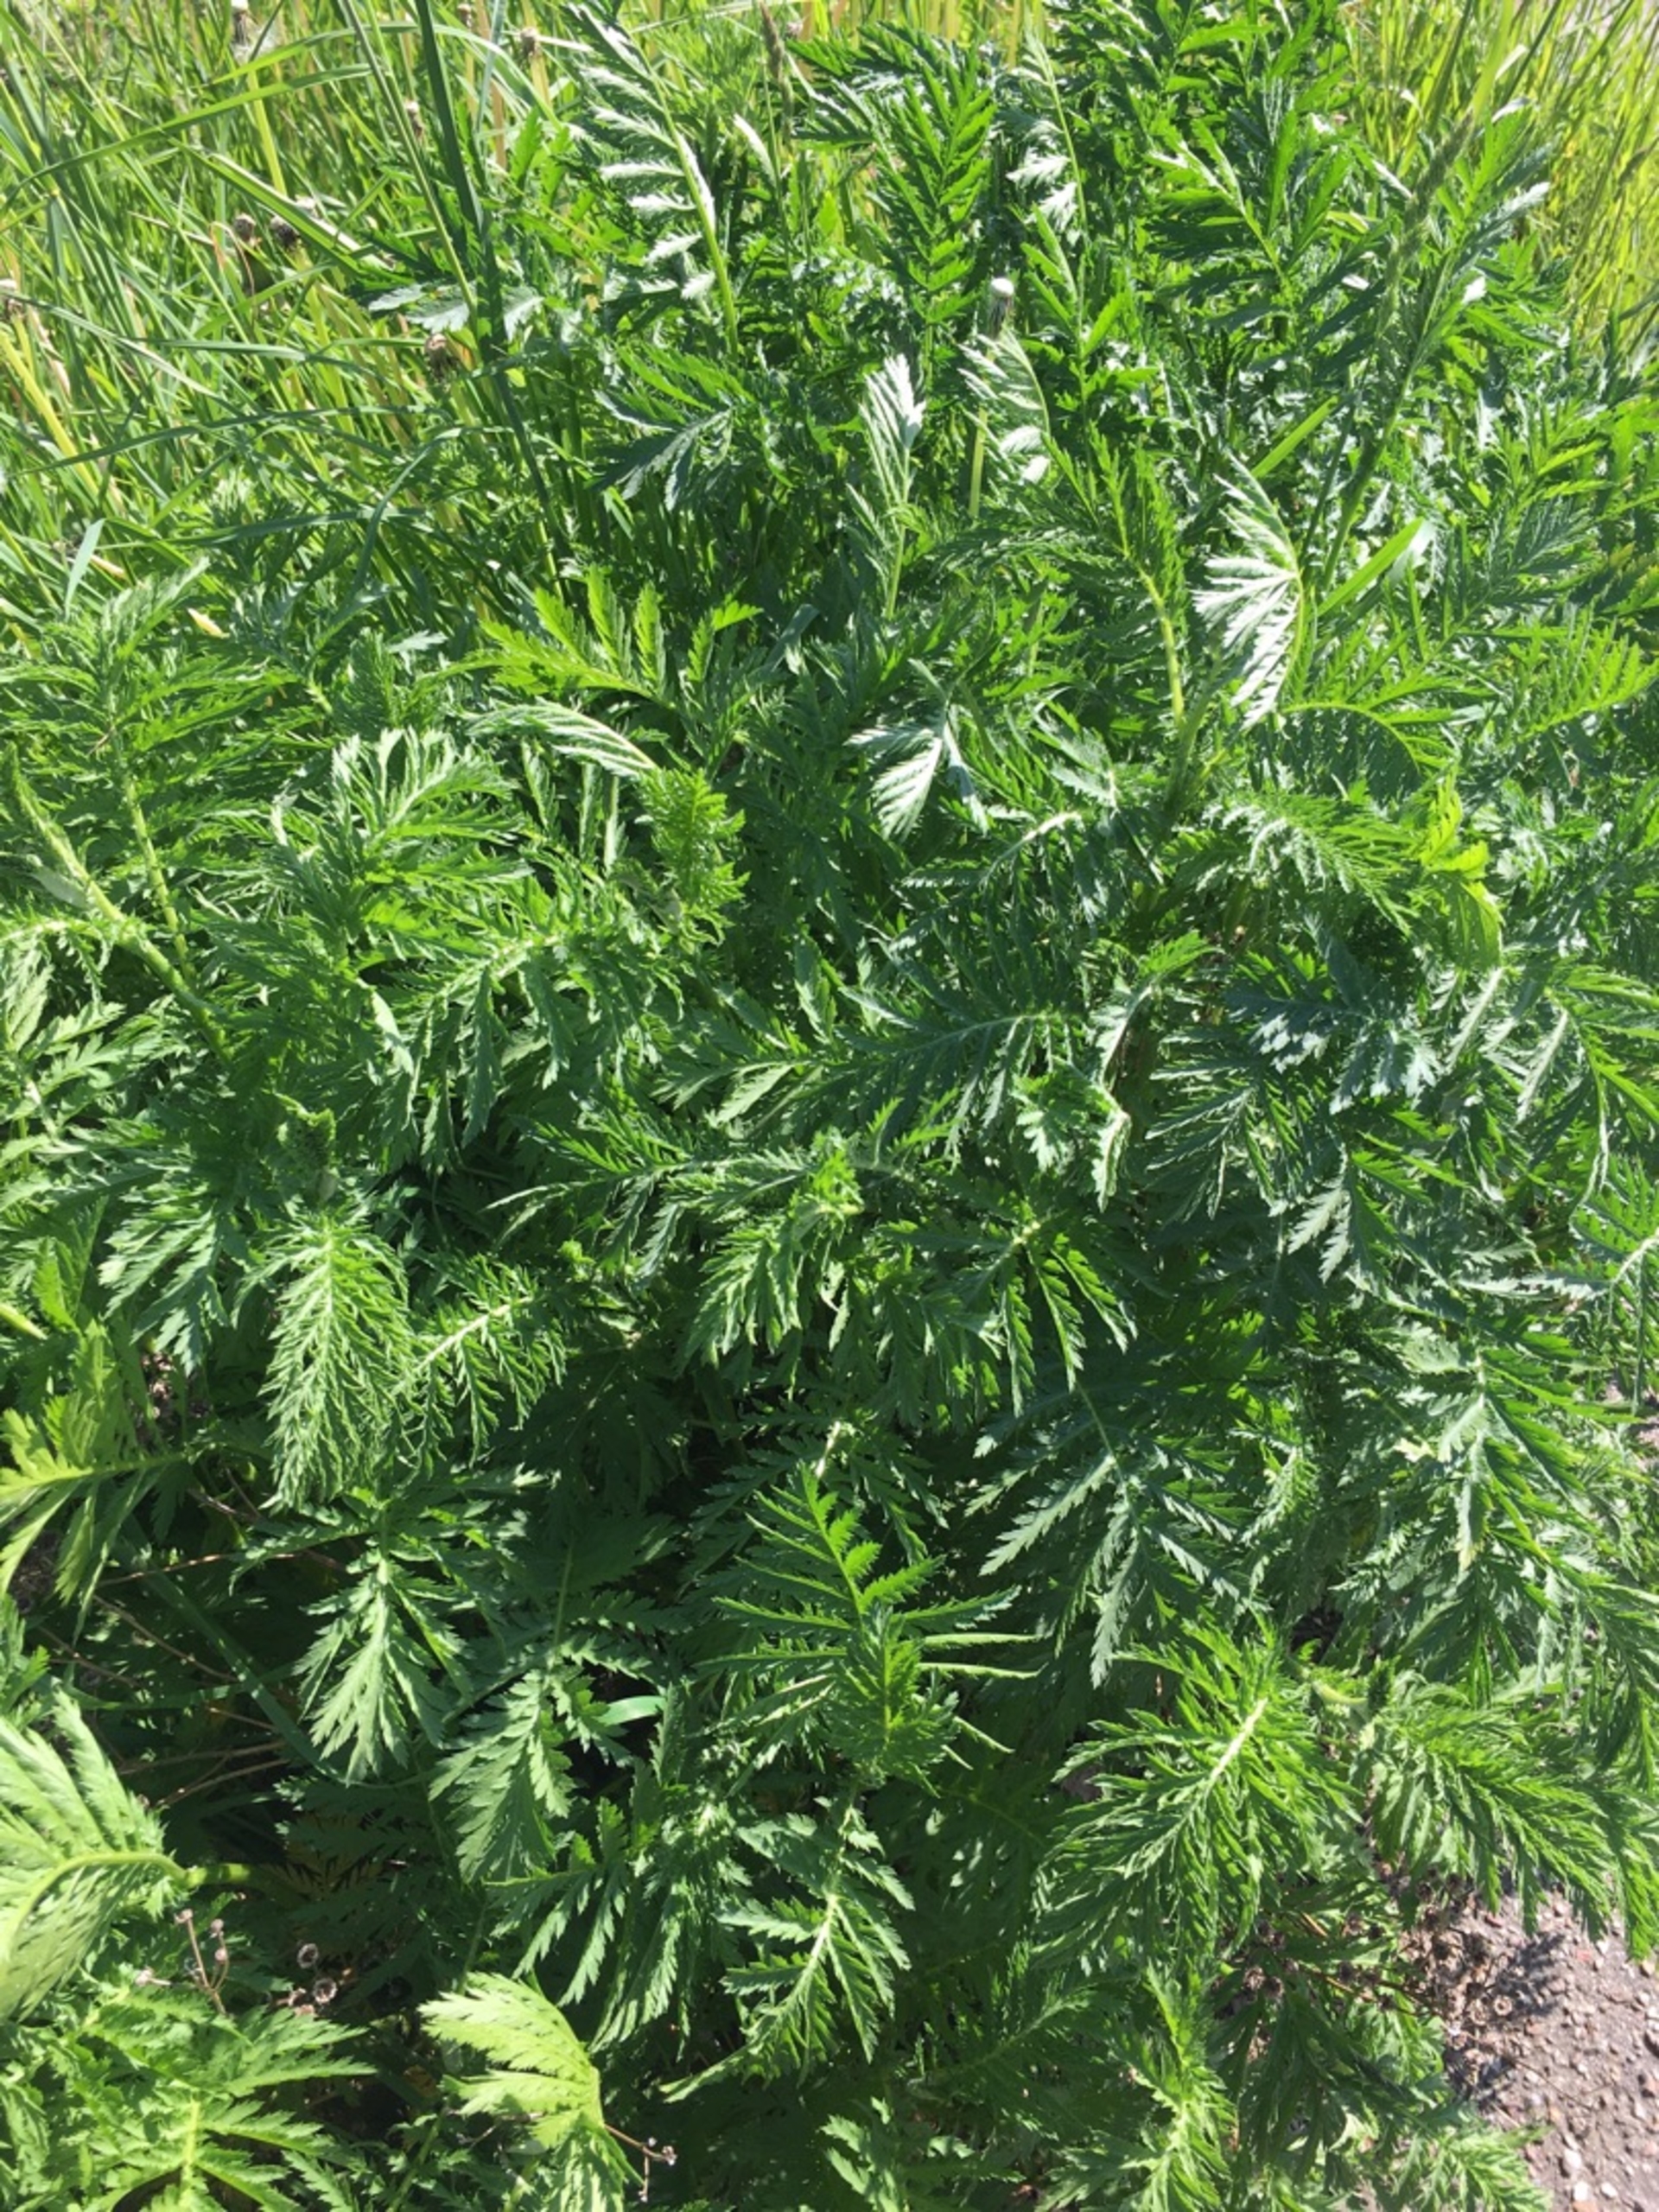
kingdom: Plantae
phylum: Tracheophyta
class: Magnoliopsida
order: Asterales
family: Asteraceae
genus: Tanacetum
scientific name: Tanacetum vulgare
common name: Rejnfan
